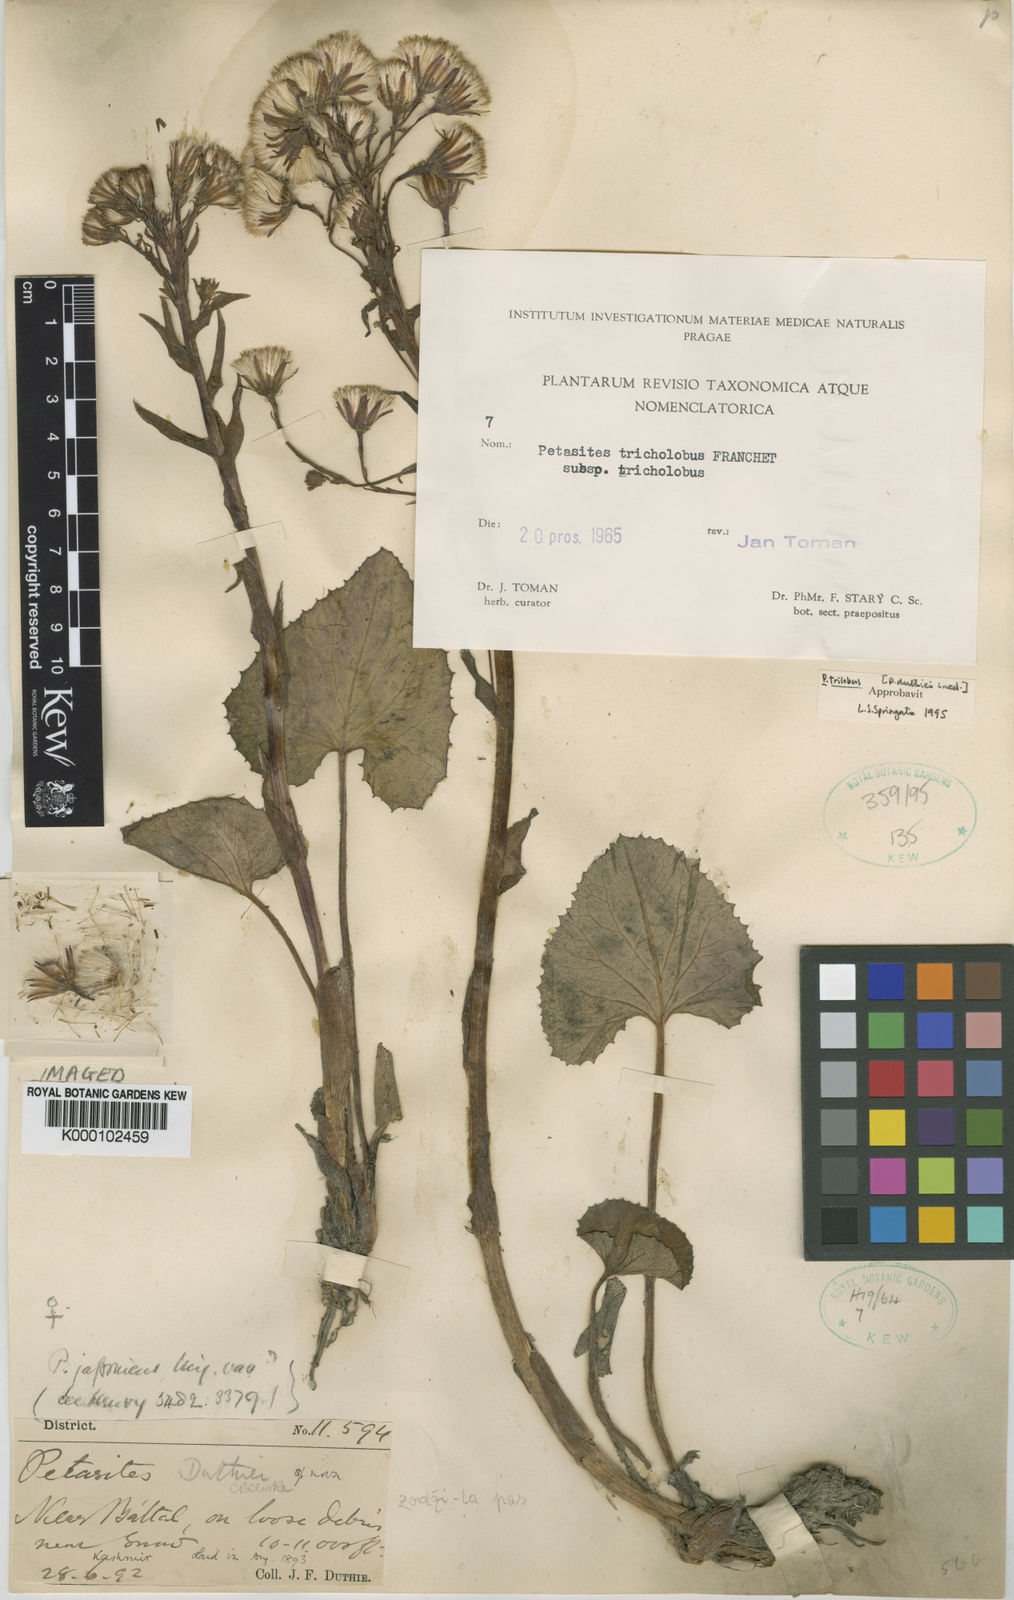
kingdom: Plantae
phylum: Tracheophyta
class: Magnoliopsida
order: Asterales
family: Asteraceae
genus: Petasites
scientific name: Petasites tricholobus
